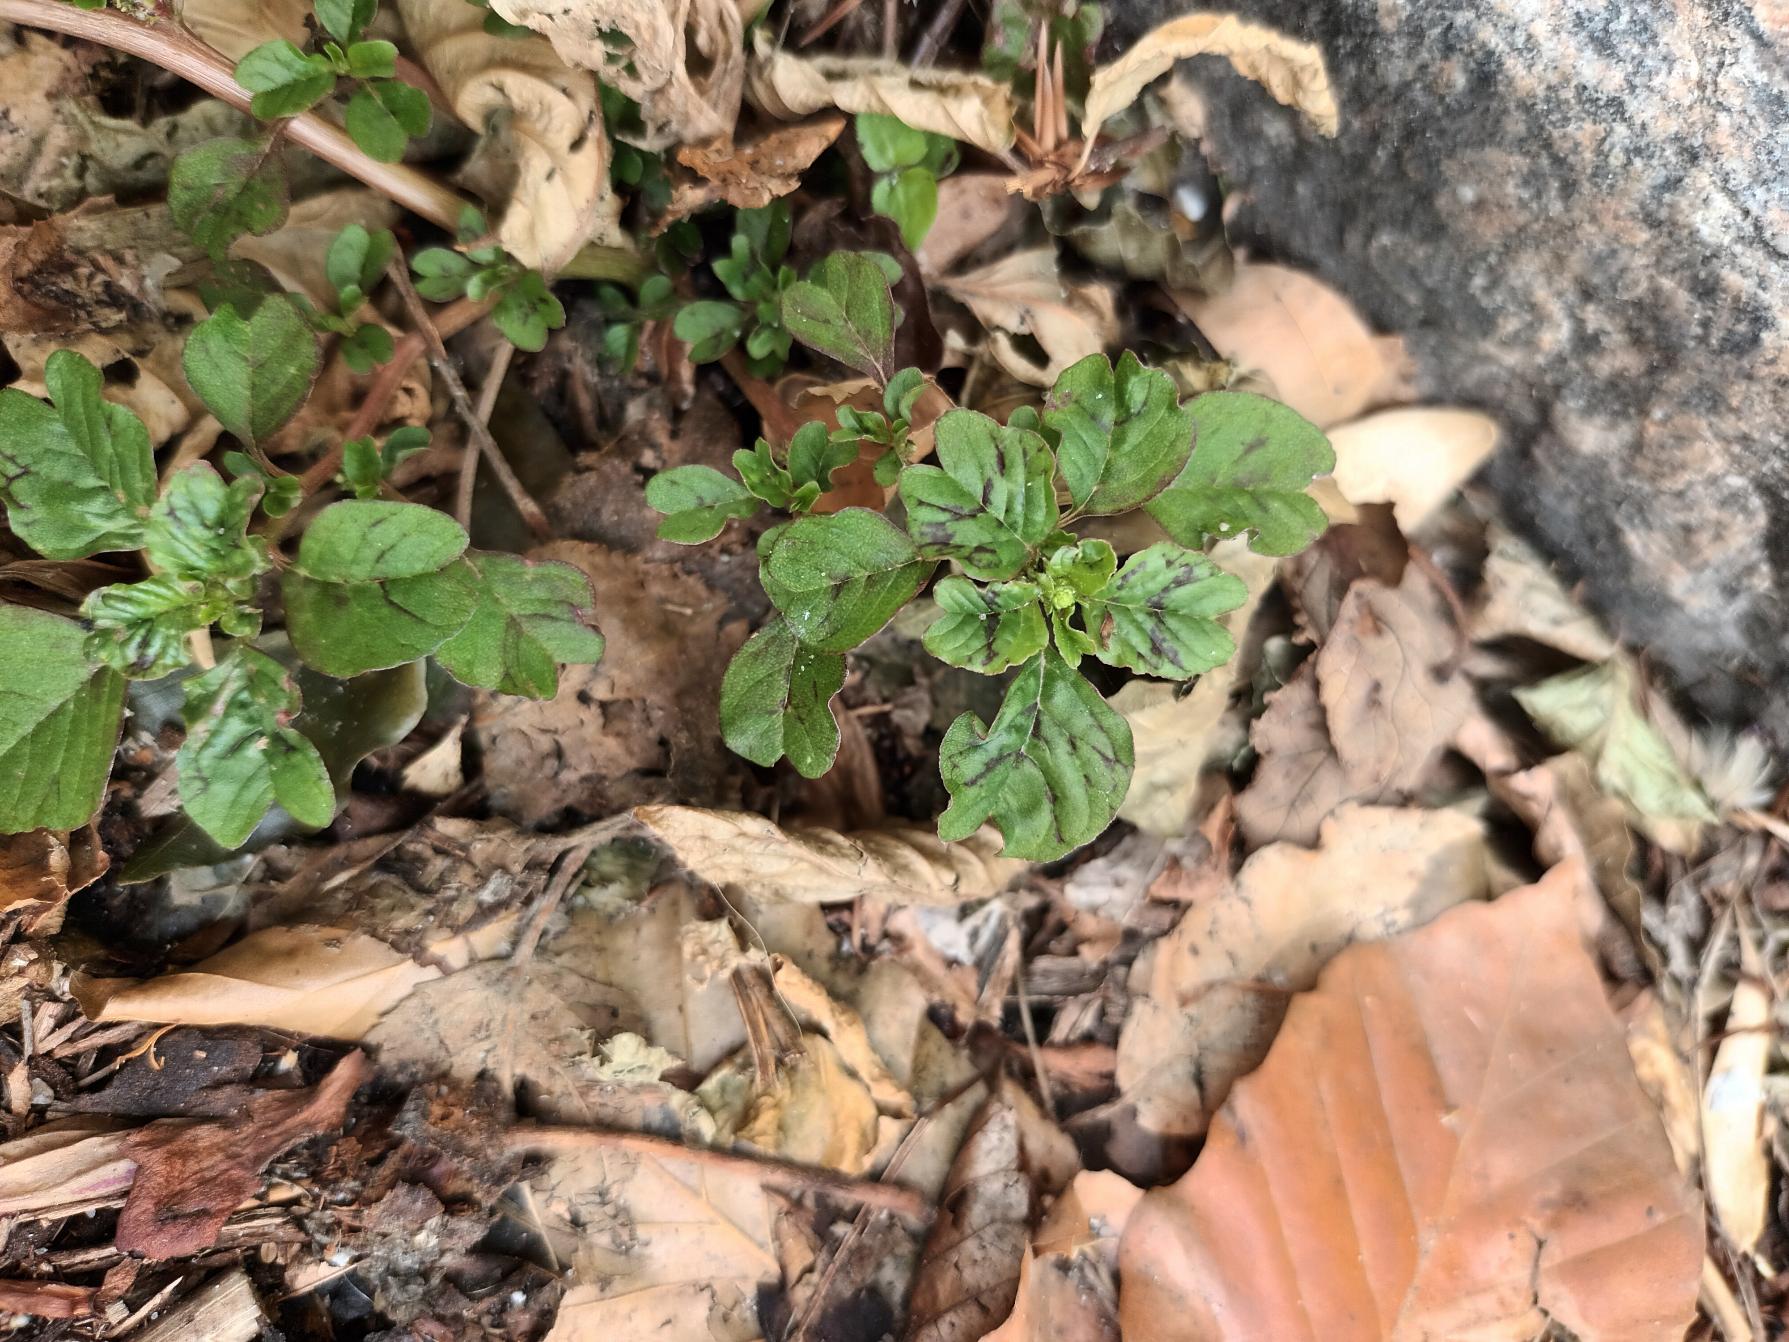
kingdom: Plantae
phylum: Tracheophyta
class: Magnoliopsida
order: Caryophyllales
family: Amaranthaceae
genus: Amaranthus
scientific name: Amaranthus blitum
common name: Plet-amarant
